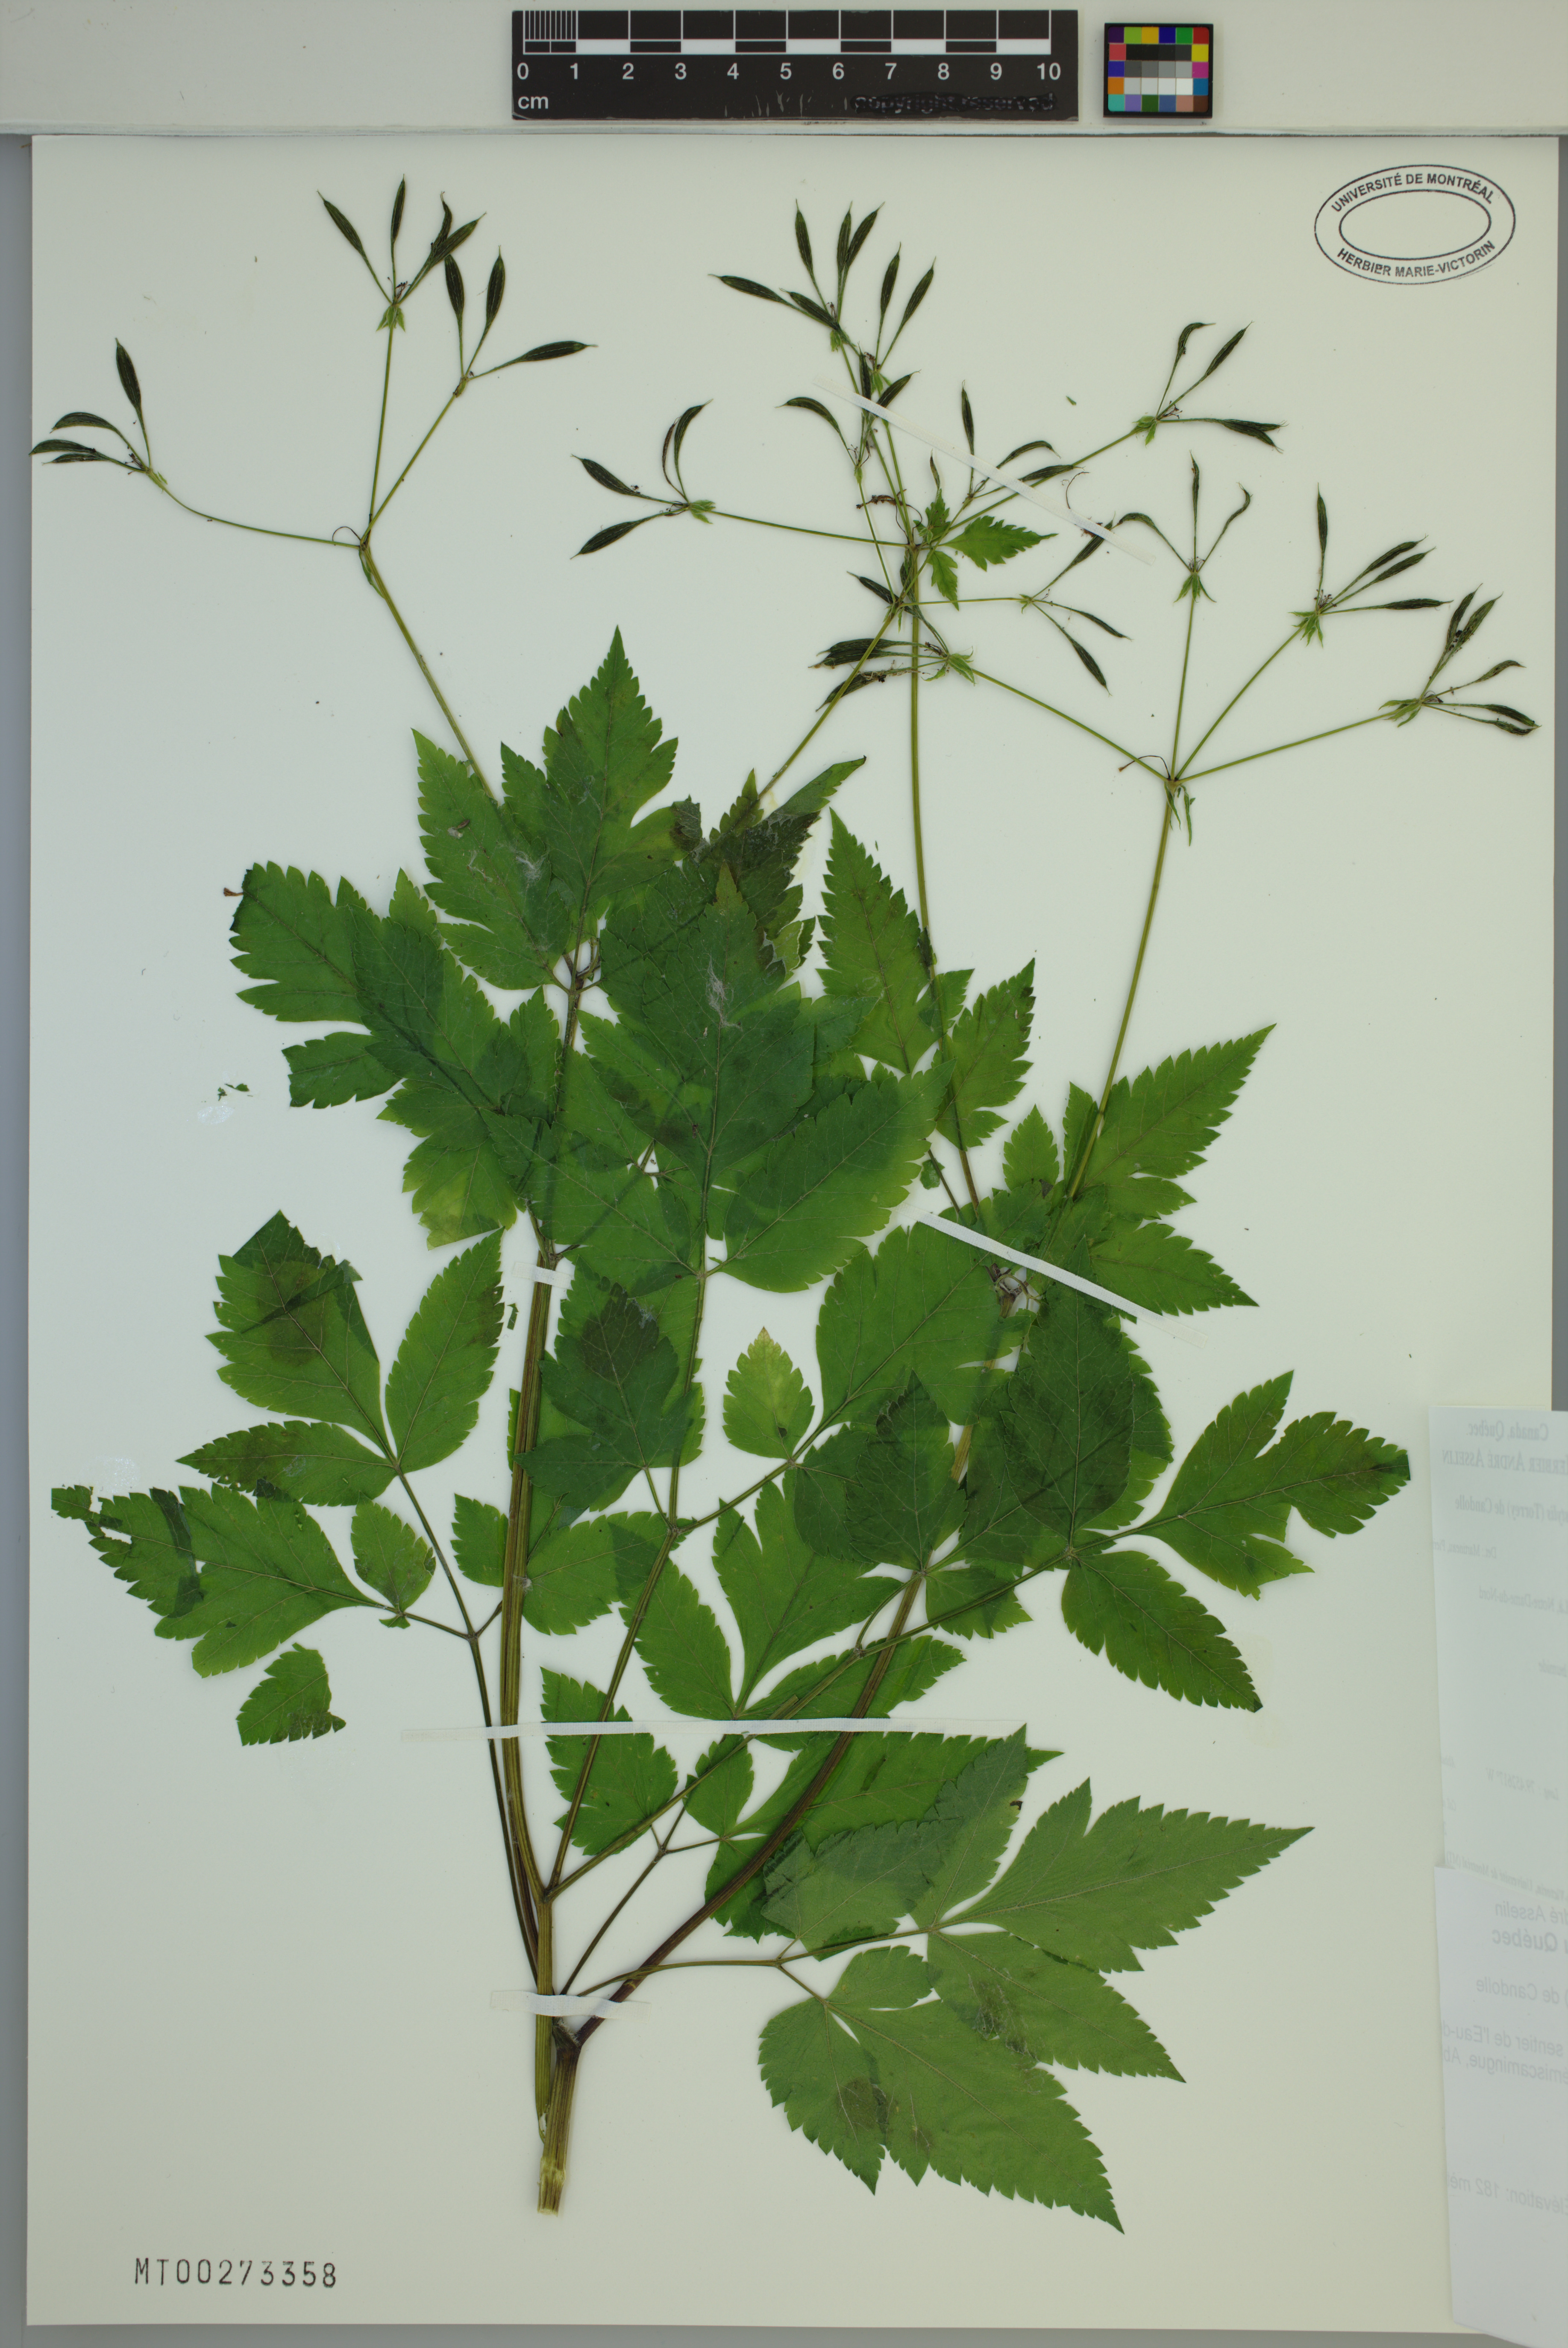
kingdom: Plantae
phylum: Tracheophyta
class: Magnoliopsida
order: Apiales
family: Apiaceae
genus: Osmorhiza
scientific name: Osmorhiza longistylis
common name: Smooth sweet cicely
